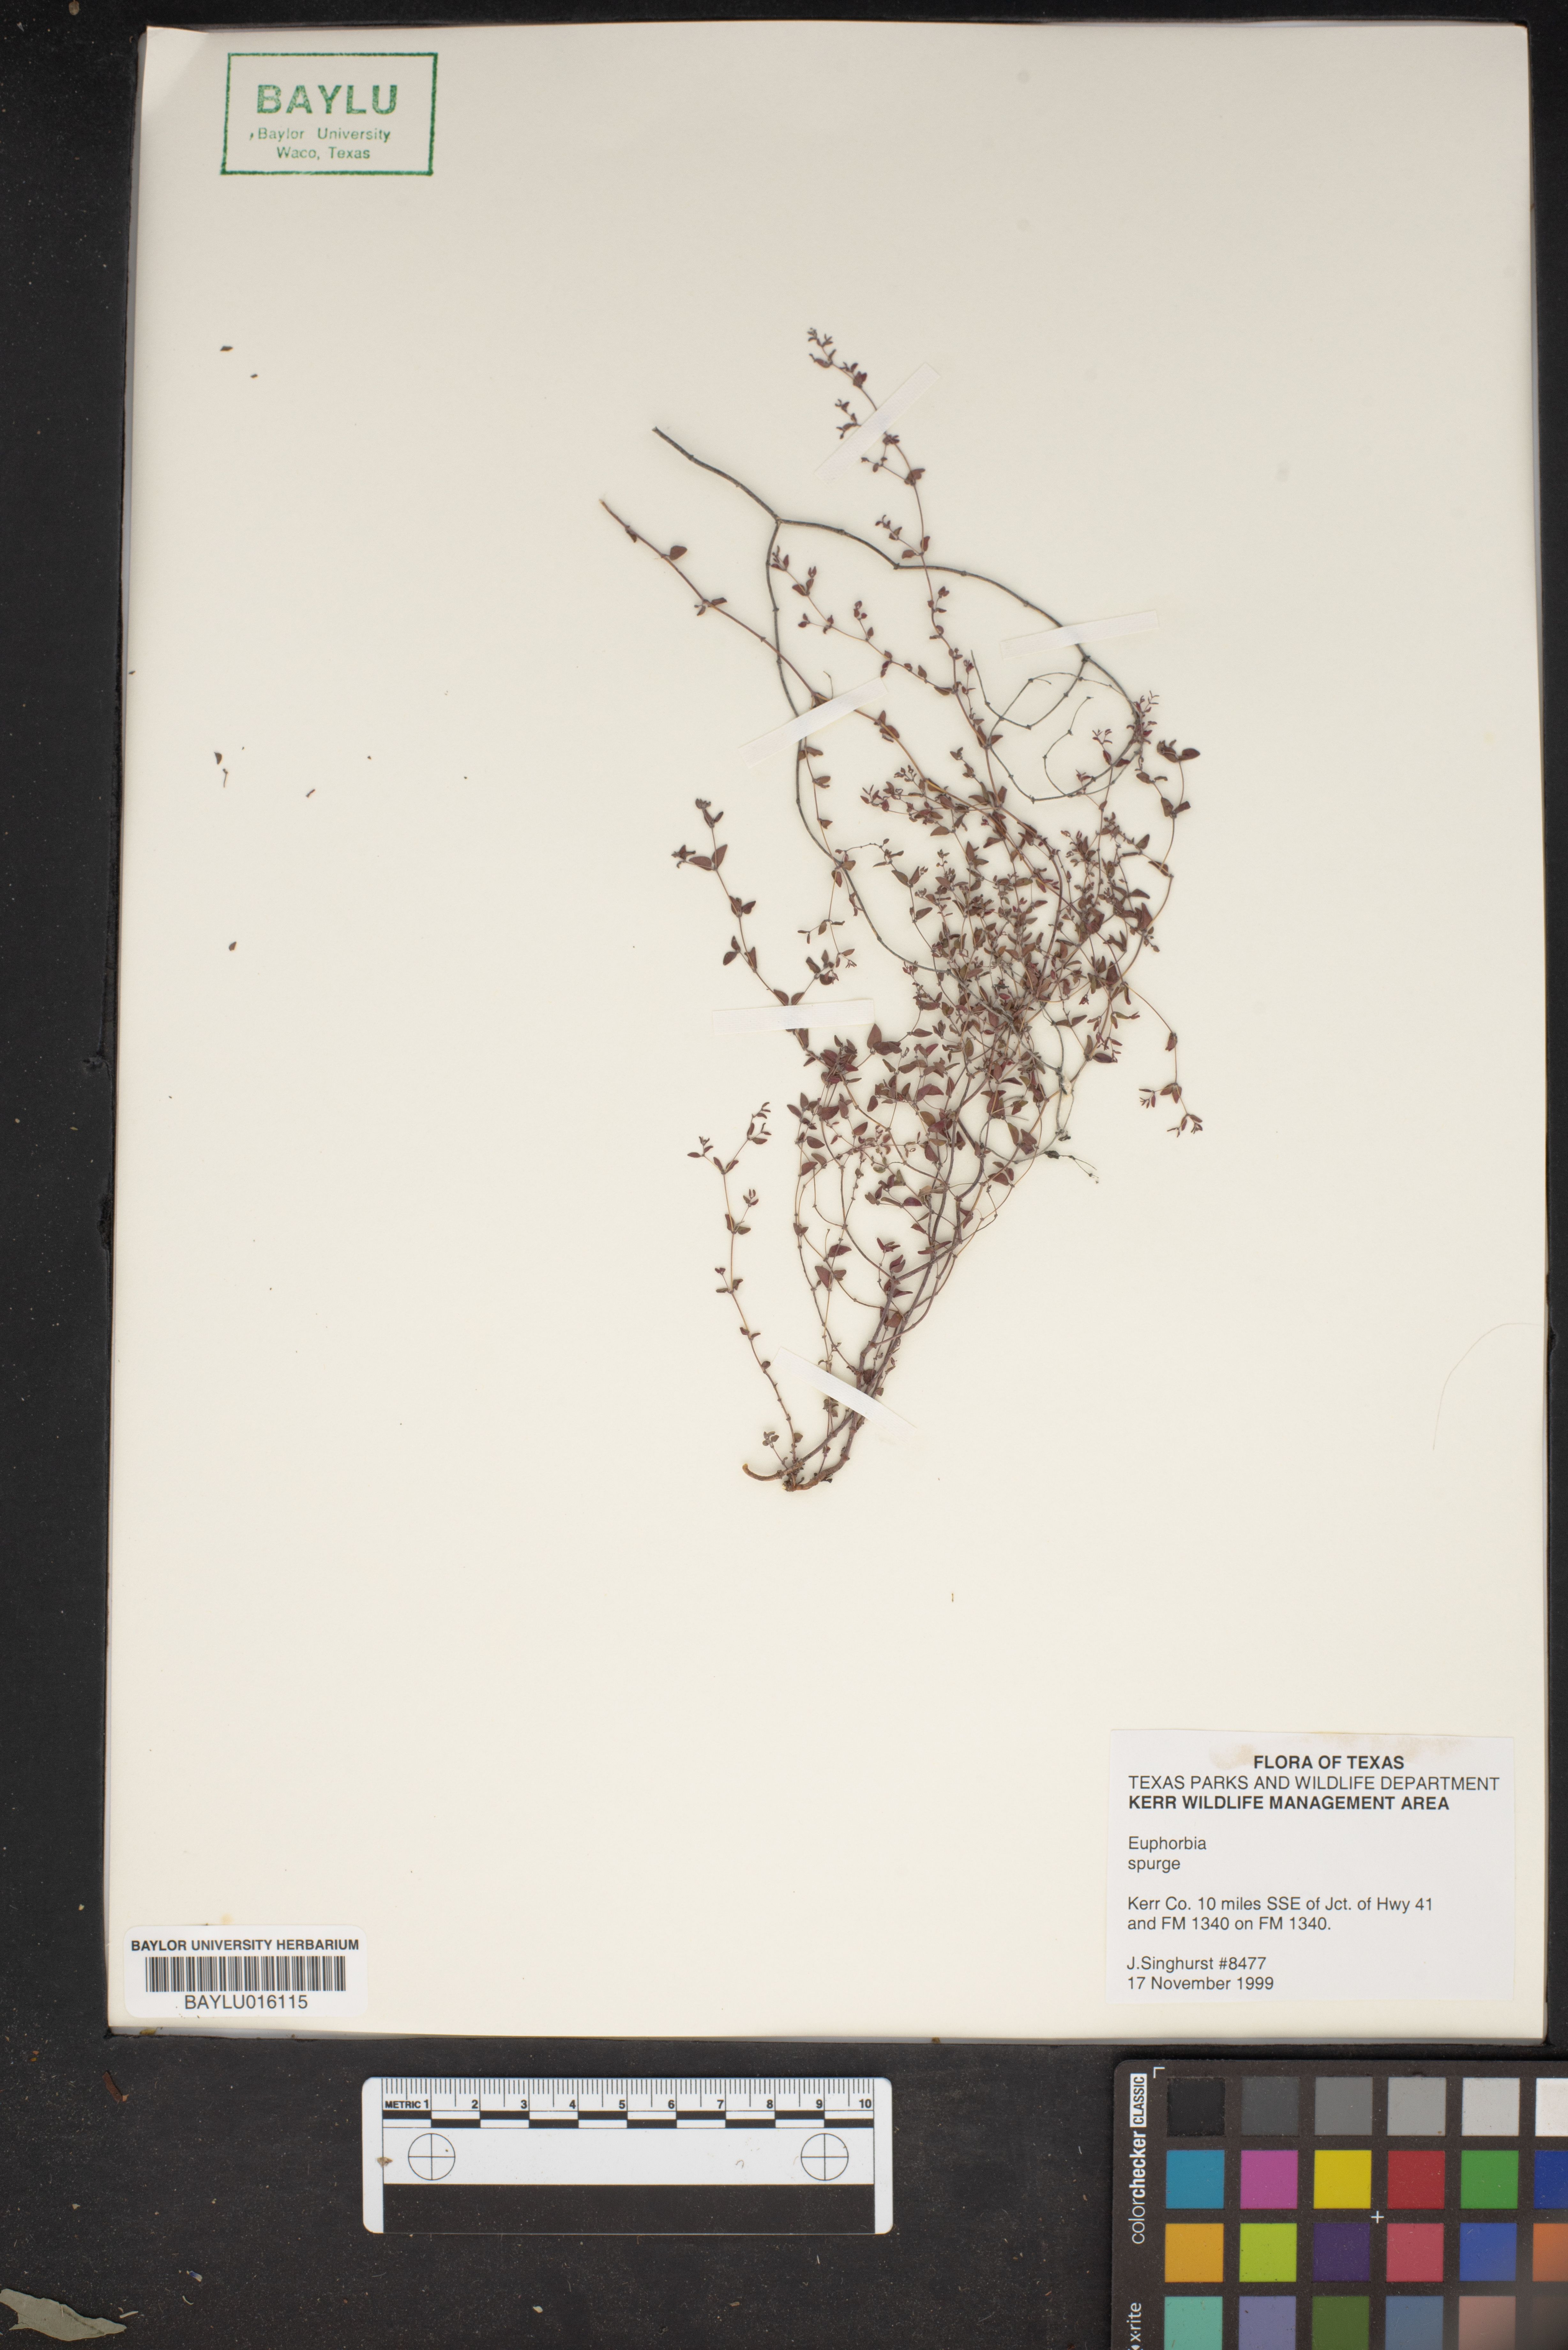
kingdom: Plantae
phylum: Tracheophyta
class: Magnoliopsida
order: Malpighiales
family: Euphorbiaceae
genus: Euphorbia
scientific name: Euphorbia
